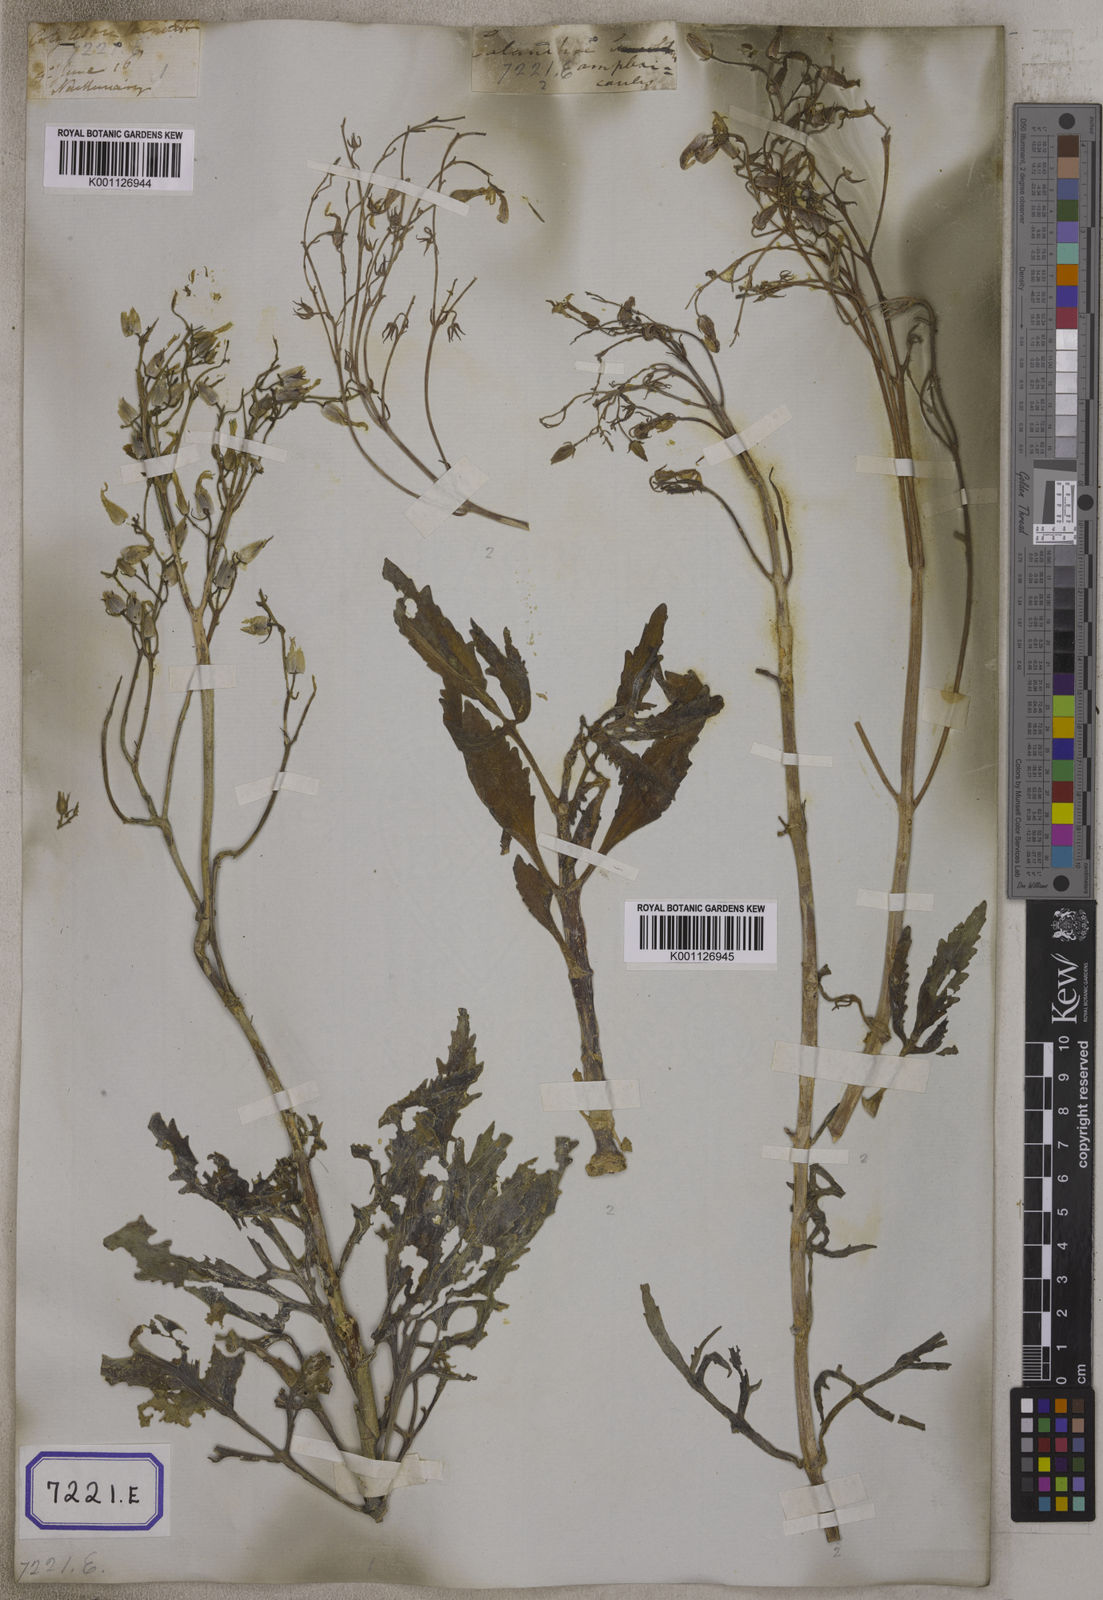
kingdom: Plantae
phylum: Tracheophyta
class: Magnoliopsida
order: Saxifragales
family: Crassulaceae
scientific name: Crassulaceae
